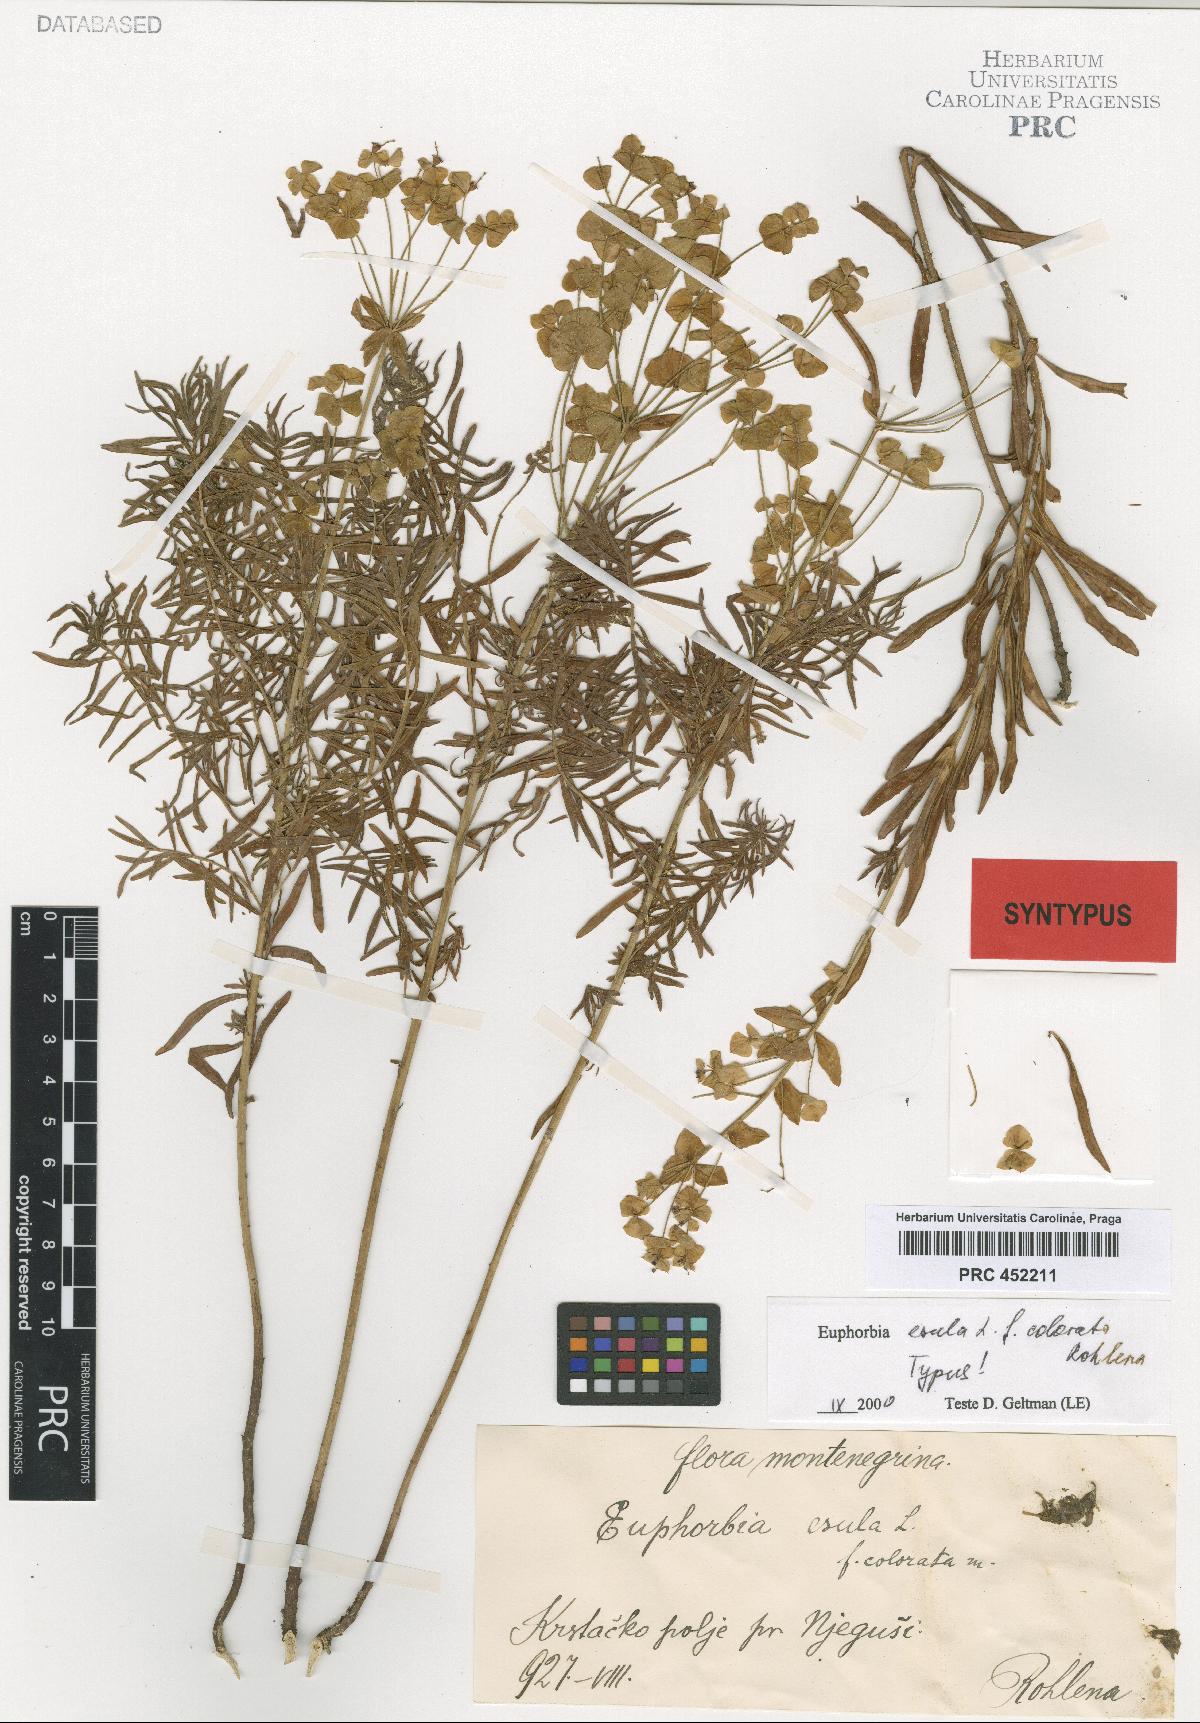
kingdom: Plantae
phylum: Tracheophyta
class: Magnoliopsida
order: Malpighiales
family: Euphorbiaceae
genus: Euphorbia
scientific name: Euphorbia esula
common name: Leafy spurge
